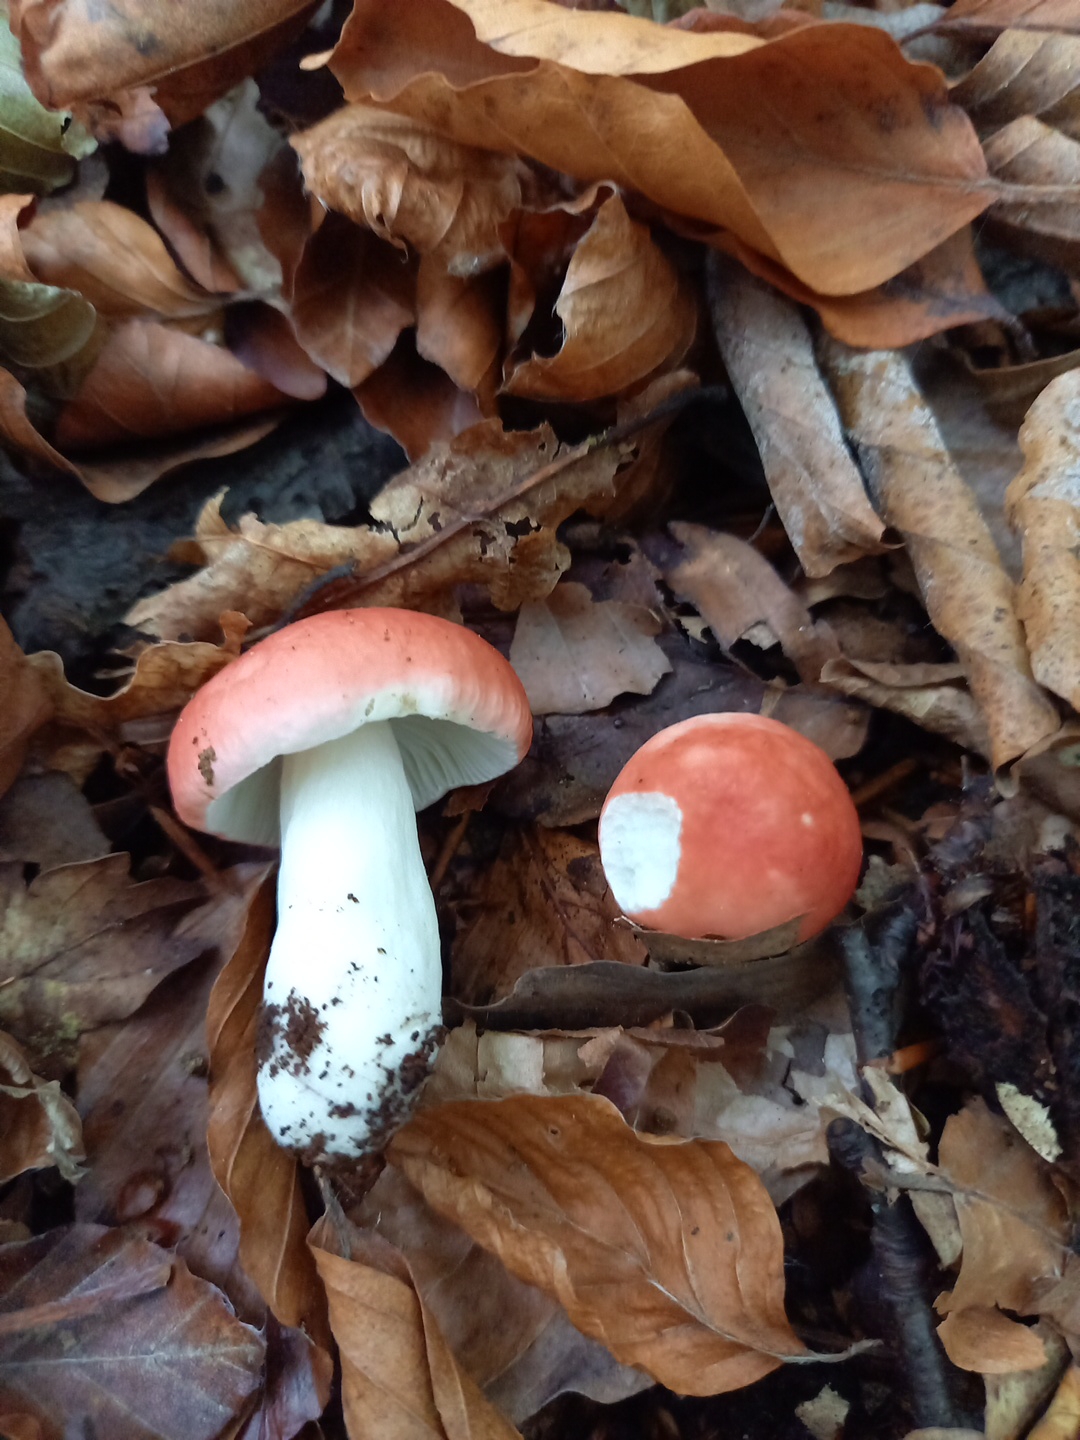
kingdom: Fungi
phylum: Basidiomycota
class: Agaricomycetes
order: Russulales
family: Russulaceae
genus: Russula
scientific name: Russula nobilis
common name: lille gift-skørhat
